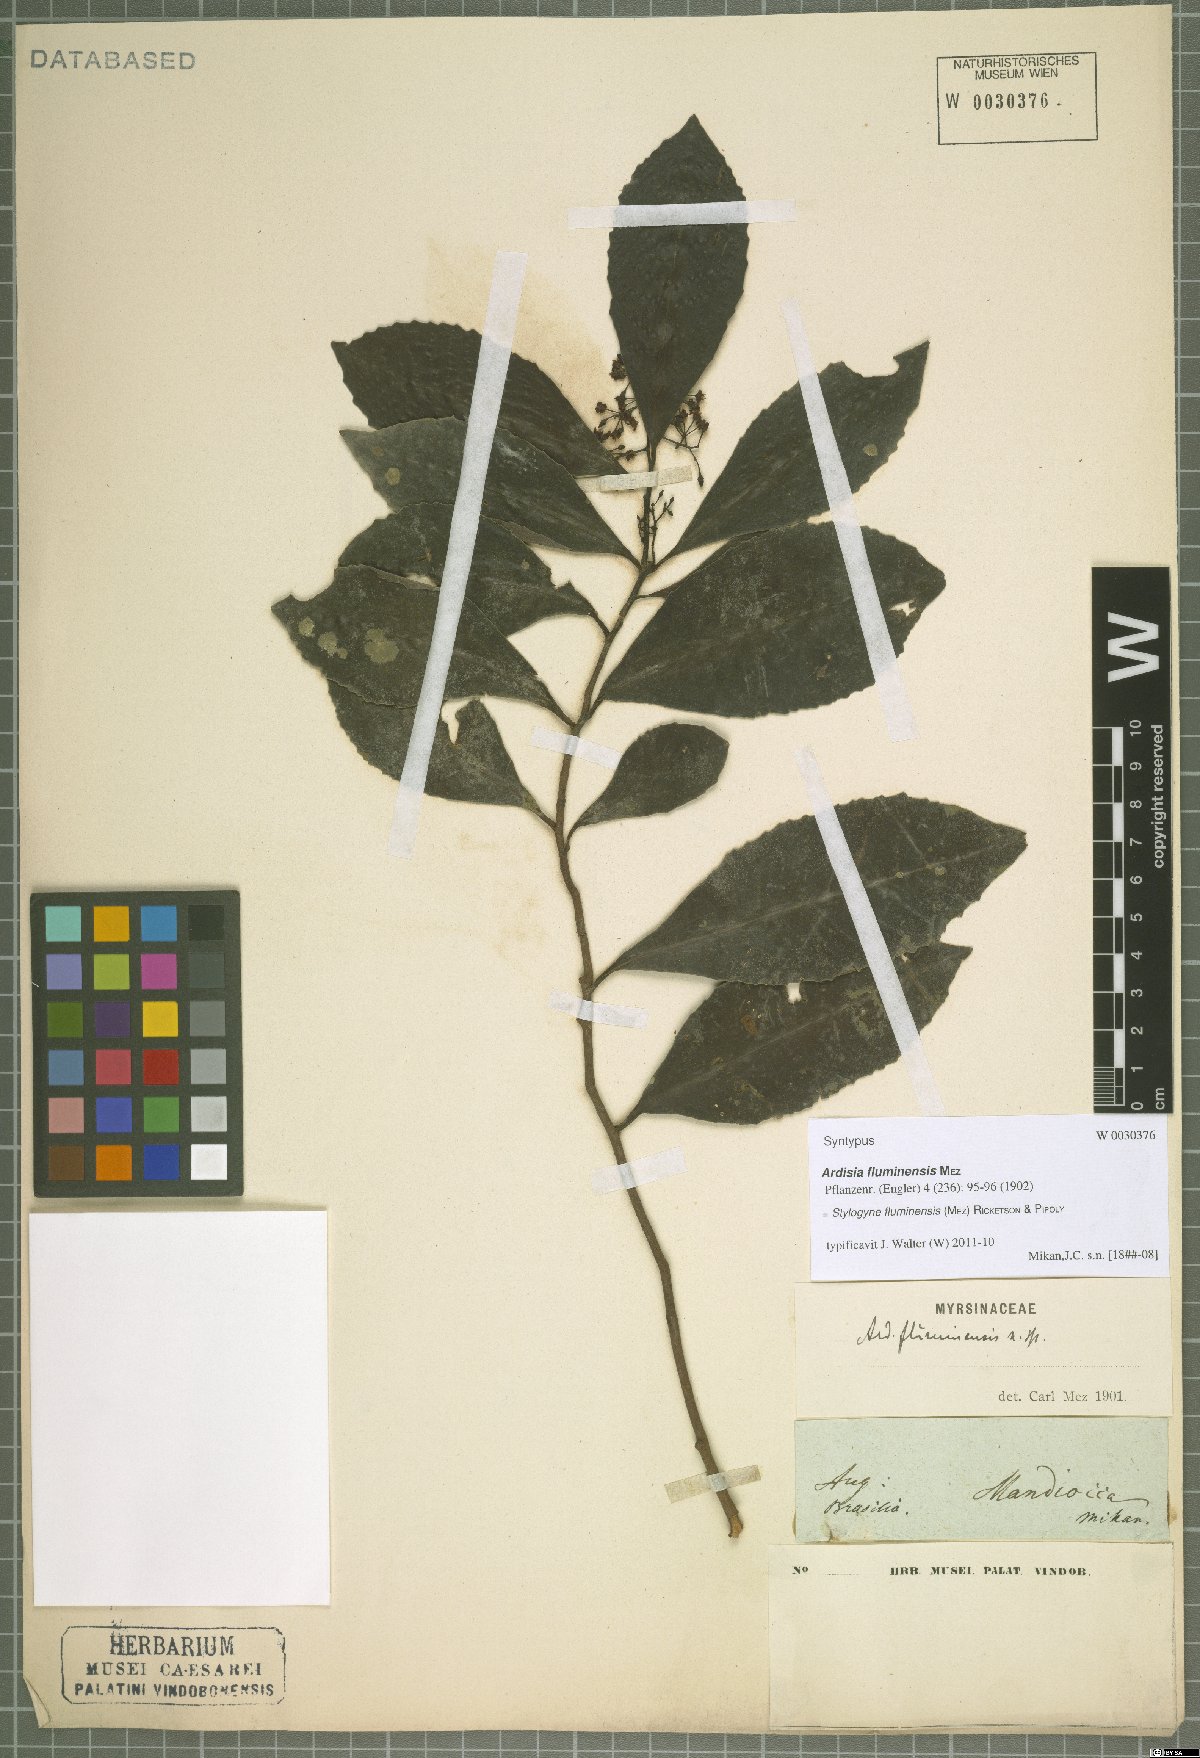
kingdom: Plantae
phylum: Tracheophyta
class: Magnoliopsida
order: Ericales
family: Primulaceae
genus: Stylogyne
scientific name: Stylogyne pauciflora
